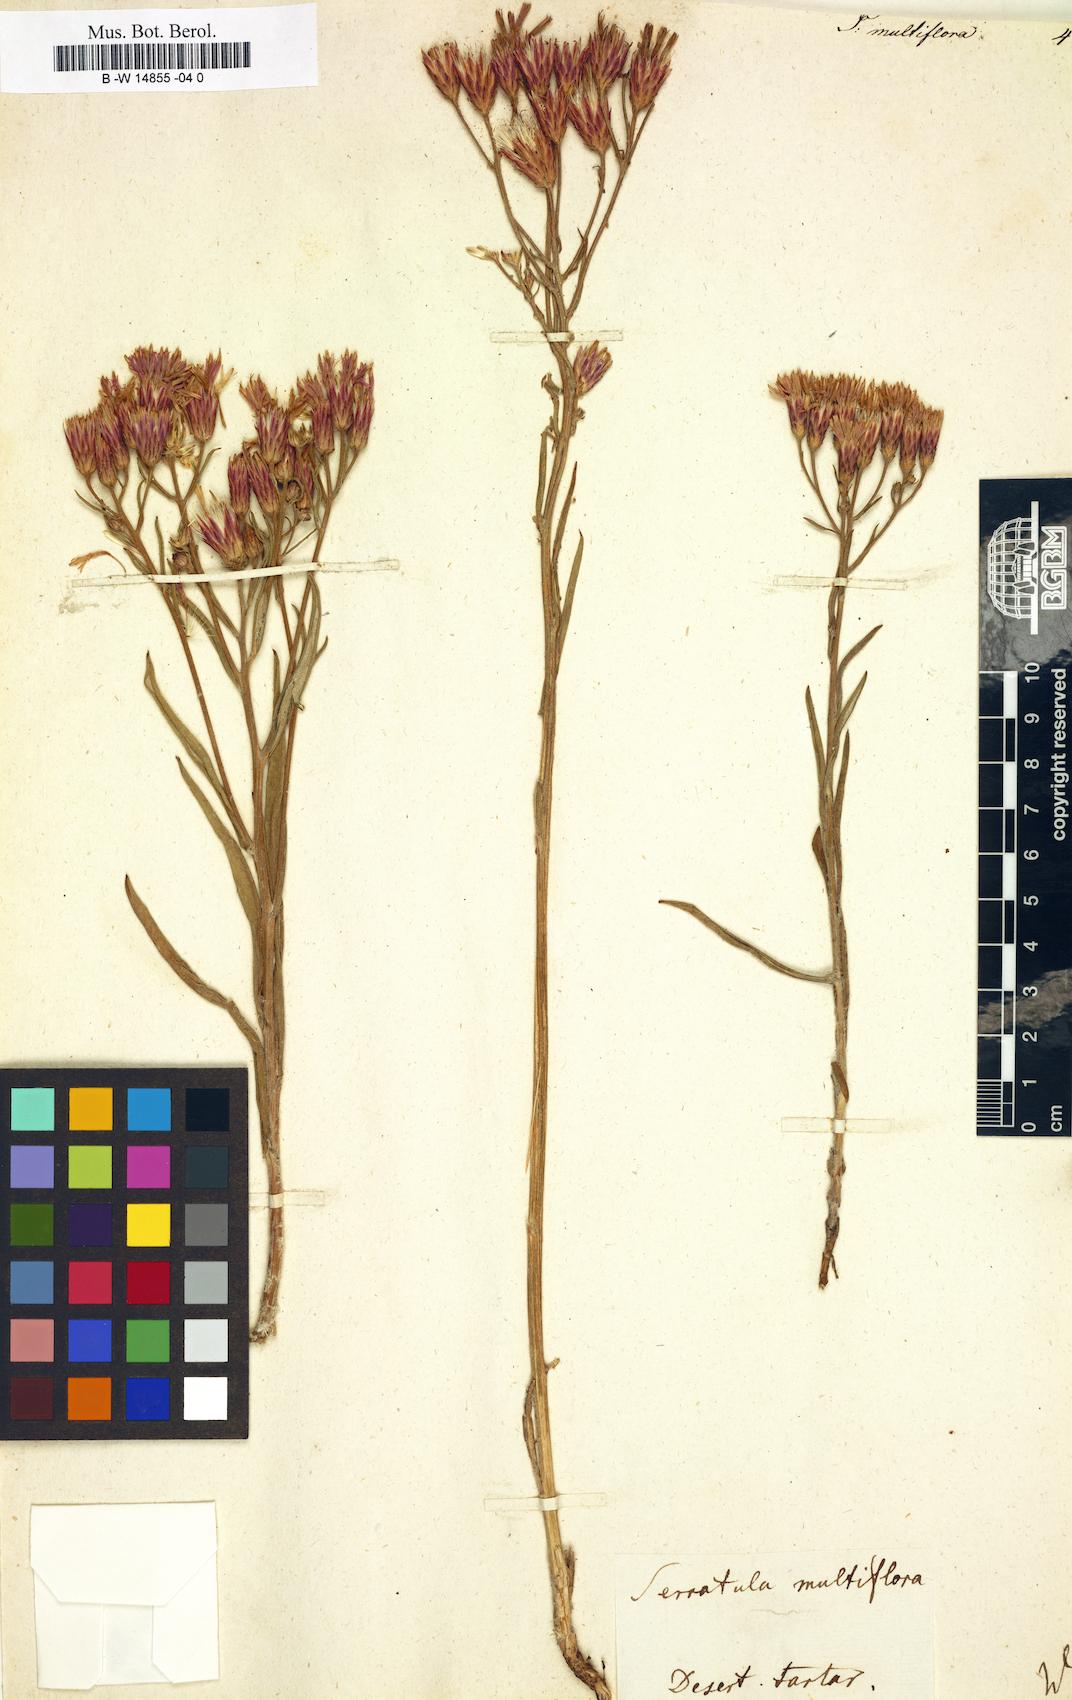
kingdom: Plantae
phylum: Tracheophyta
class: Magnoliopsida
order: Asterales
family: Asteraceae
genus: Serratula
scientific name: Serratula multiflora
